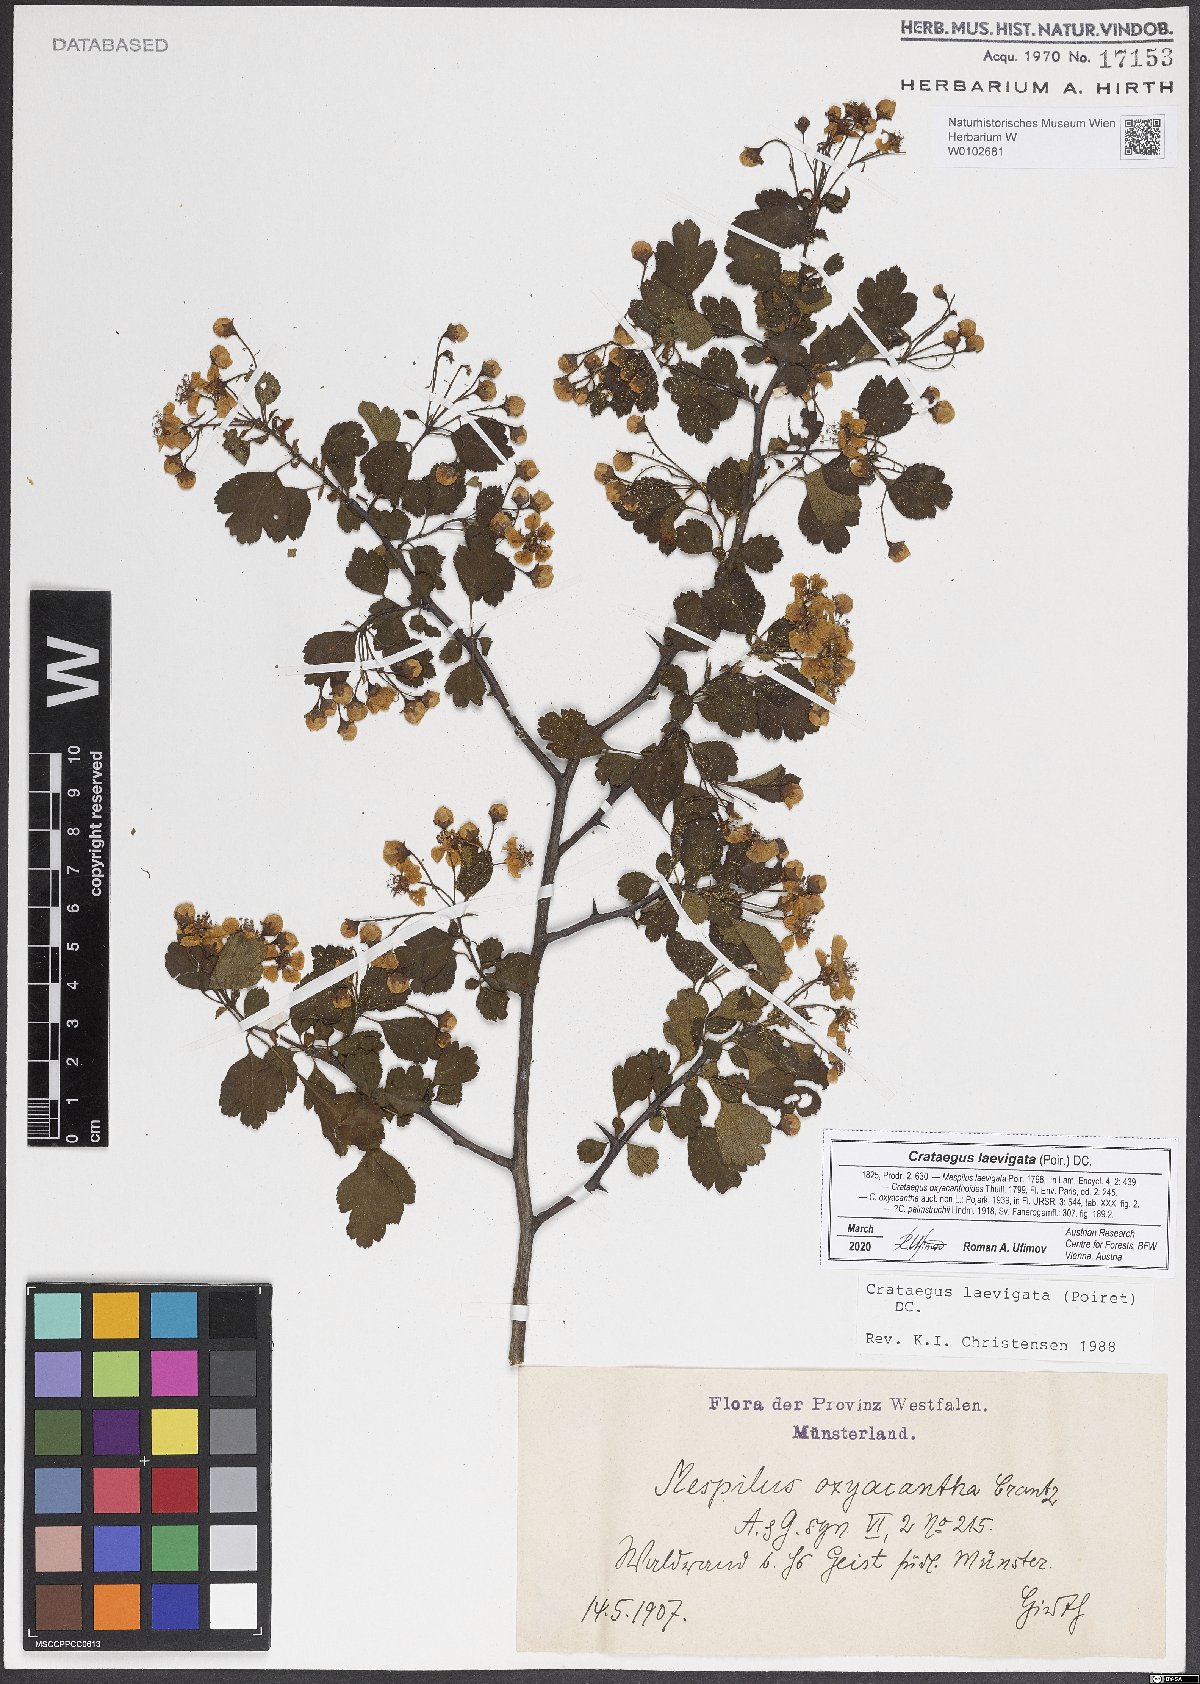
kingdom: Plantae
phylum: Tracheophyta
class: Magnoliopsida
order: Rosales
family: Rosaceae
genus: Crataegus
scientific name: Crataegus laevigata
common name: Midland hawthorn
